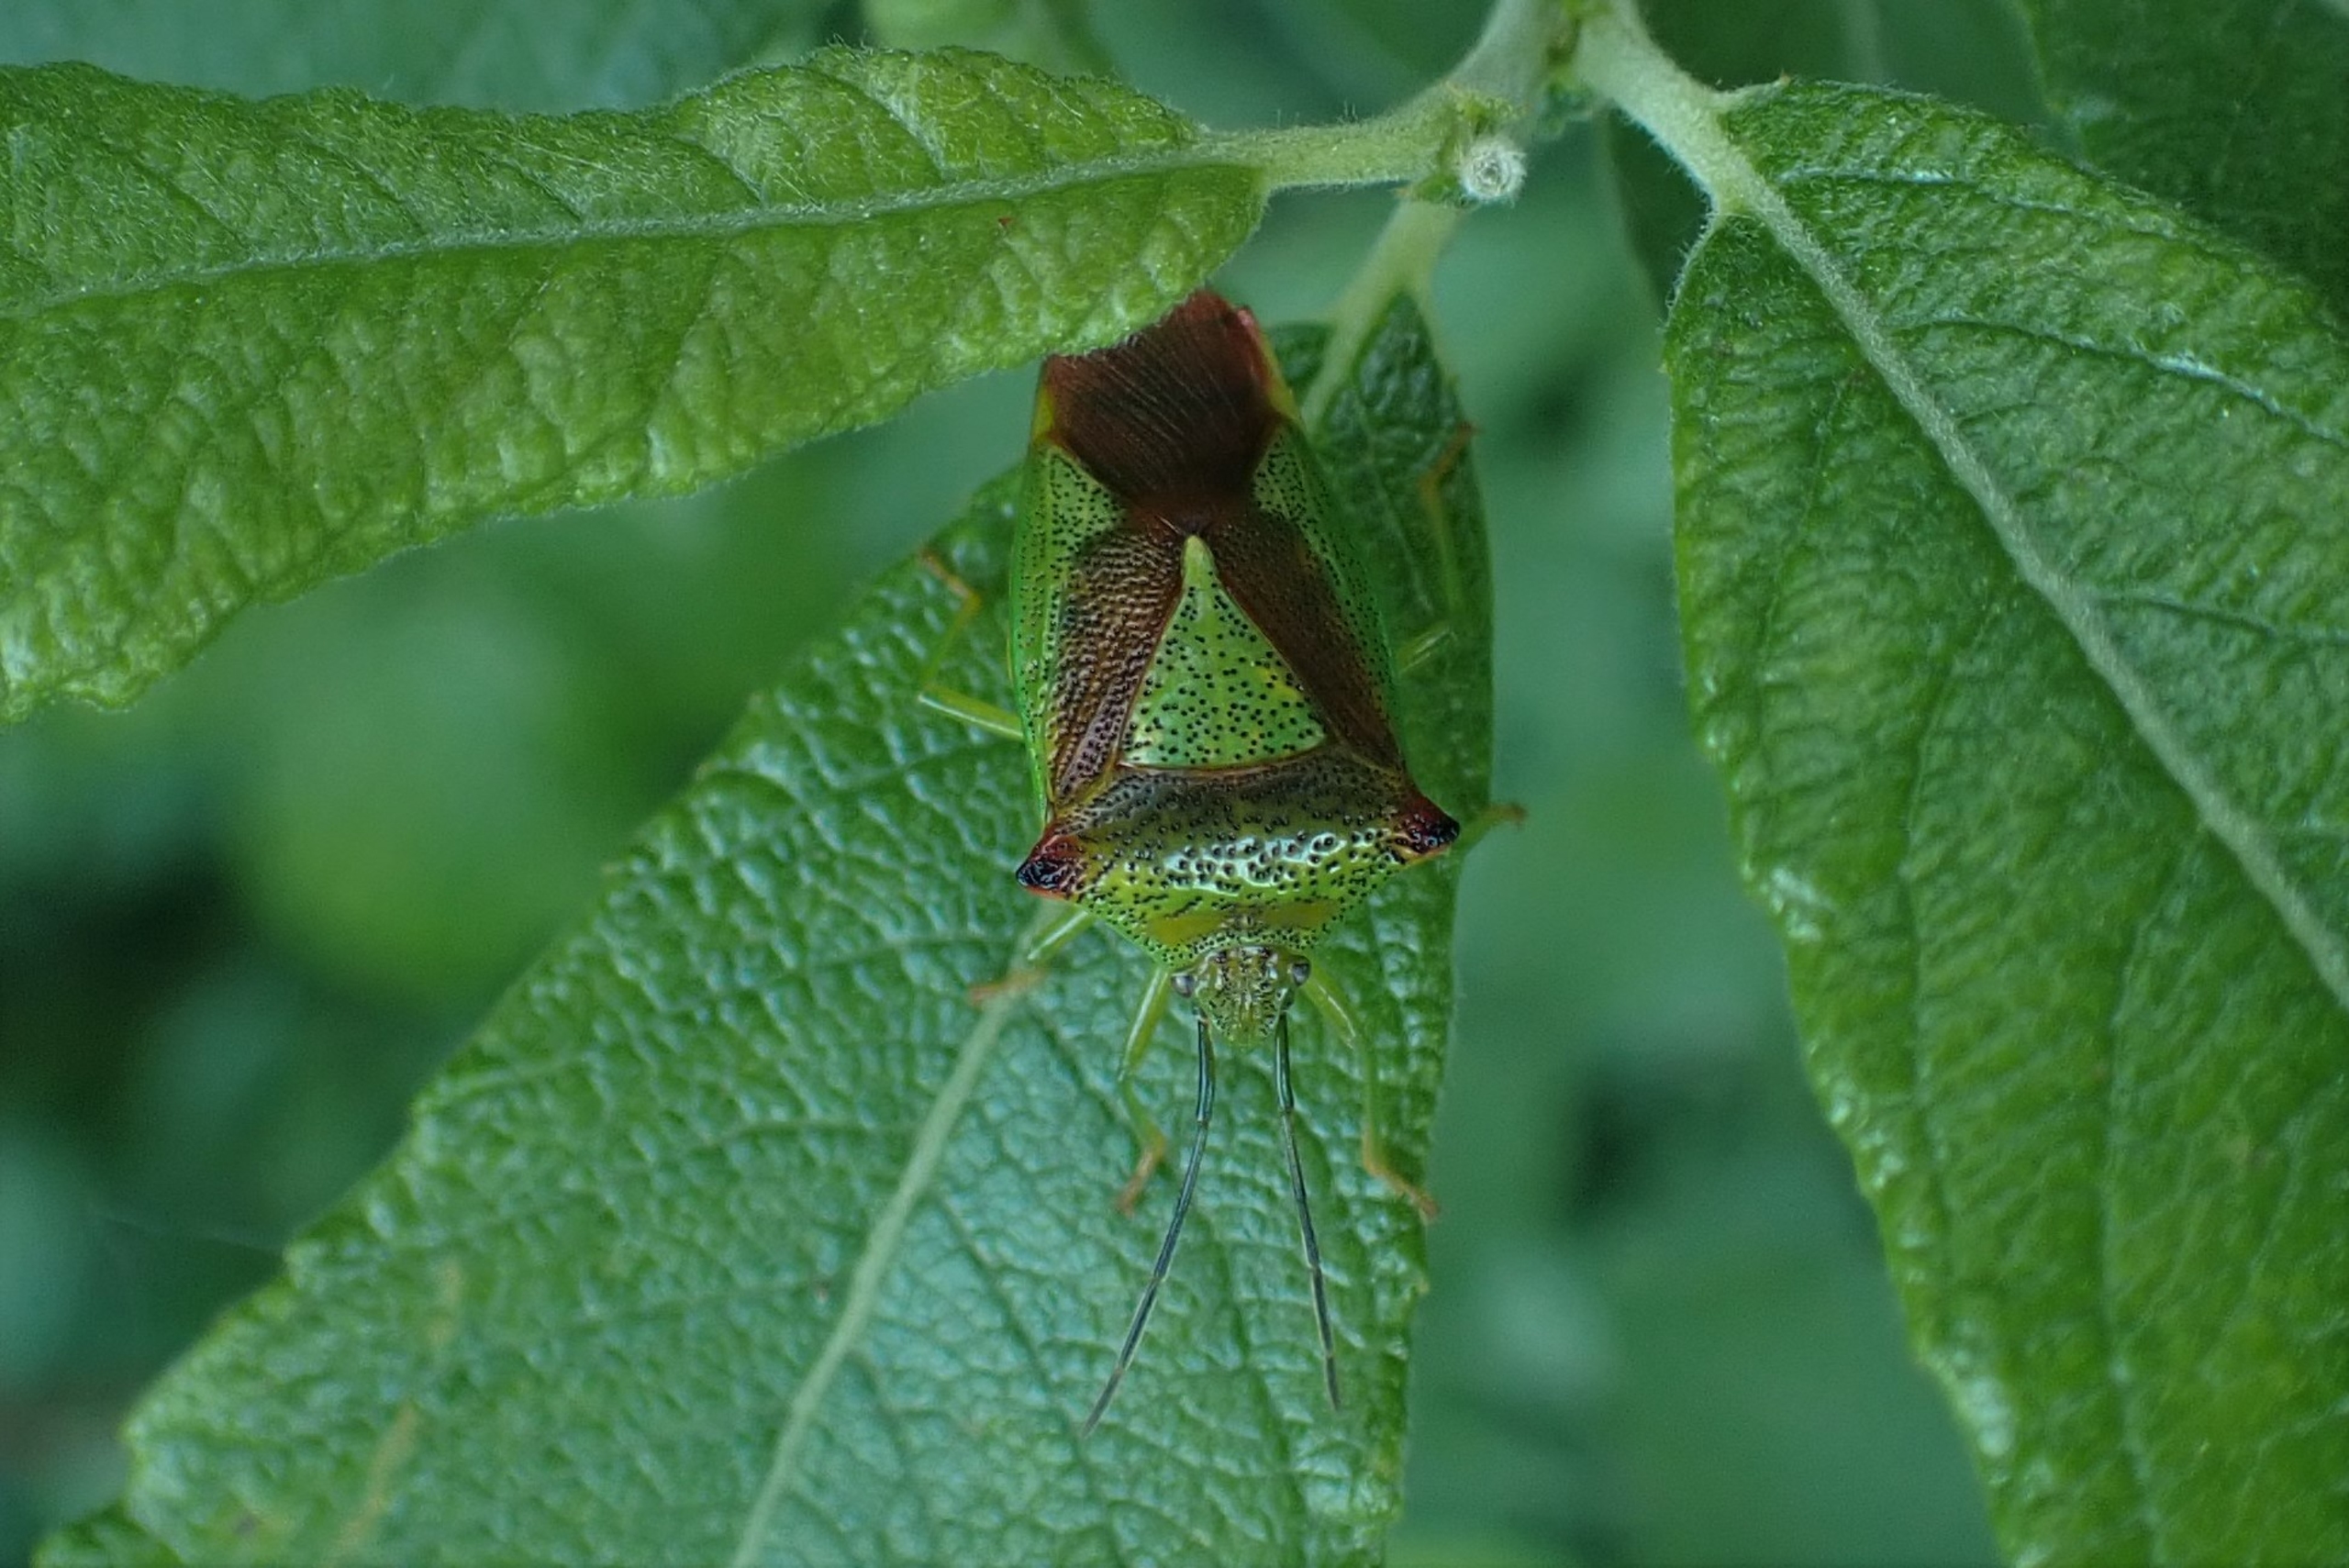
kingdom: Animalia
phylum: Arthropoda
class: Insecta
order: Hemiptera
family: Acanthosomatidae
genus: Acanthosoma
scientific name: Acanthosoma haemorrhoidale
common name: Stor løvtæge
